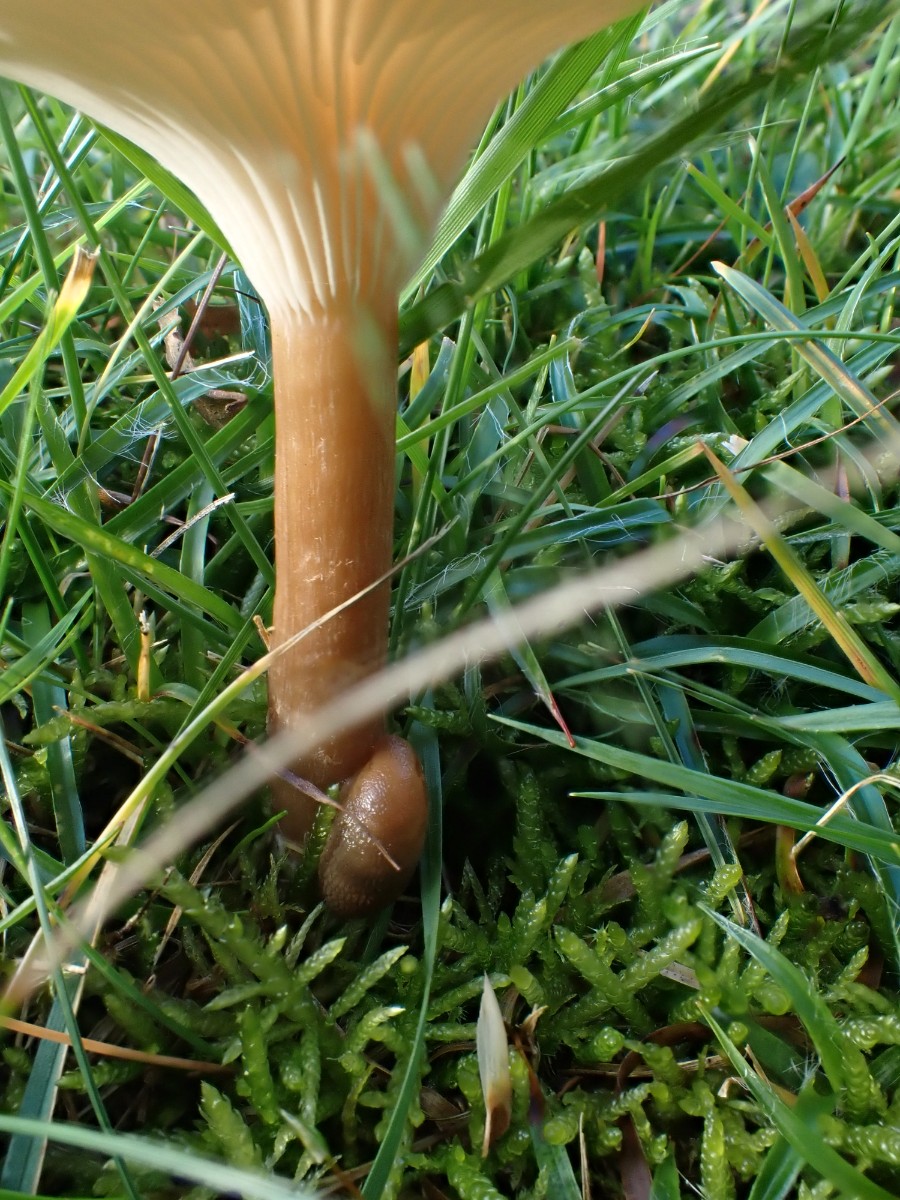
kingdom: Fungi
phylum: Basidiomycota
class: Agaricomycetes
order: Agaricales
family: Tricholomataceae
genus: Infundibulicybe
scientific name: Infundibulicybe squamulosa
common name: småskællet tragthat
